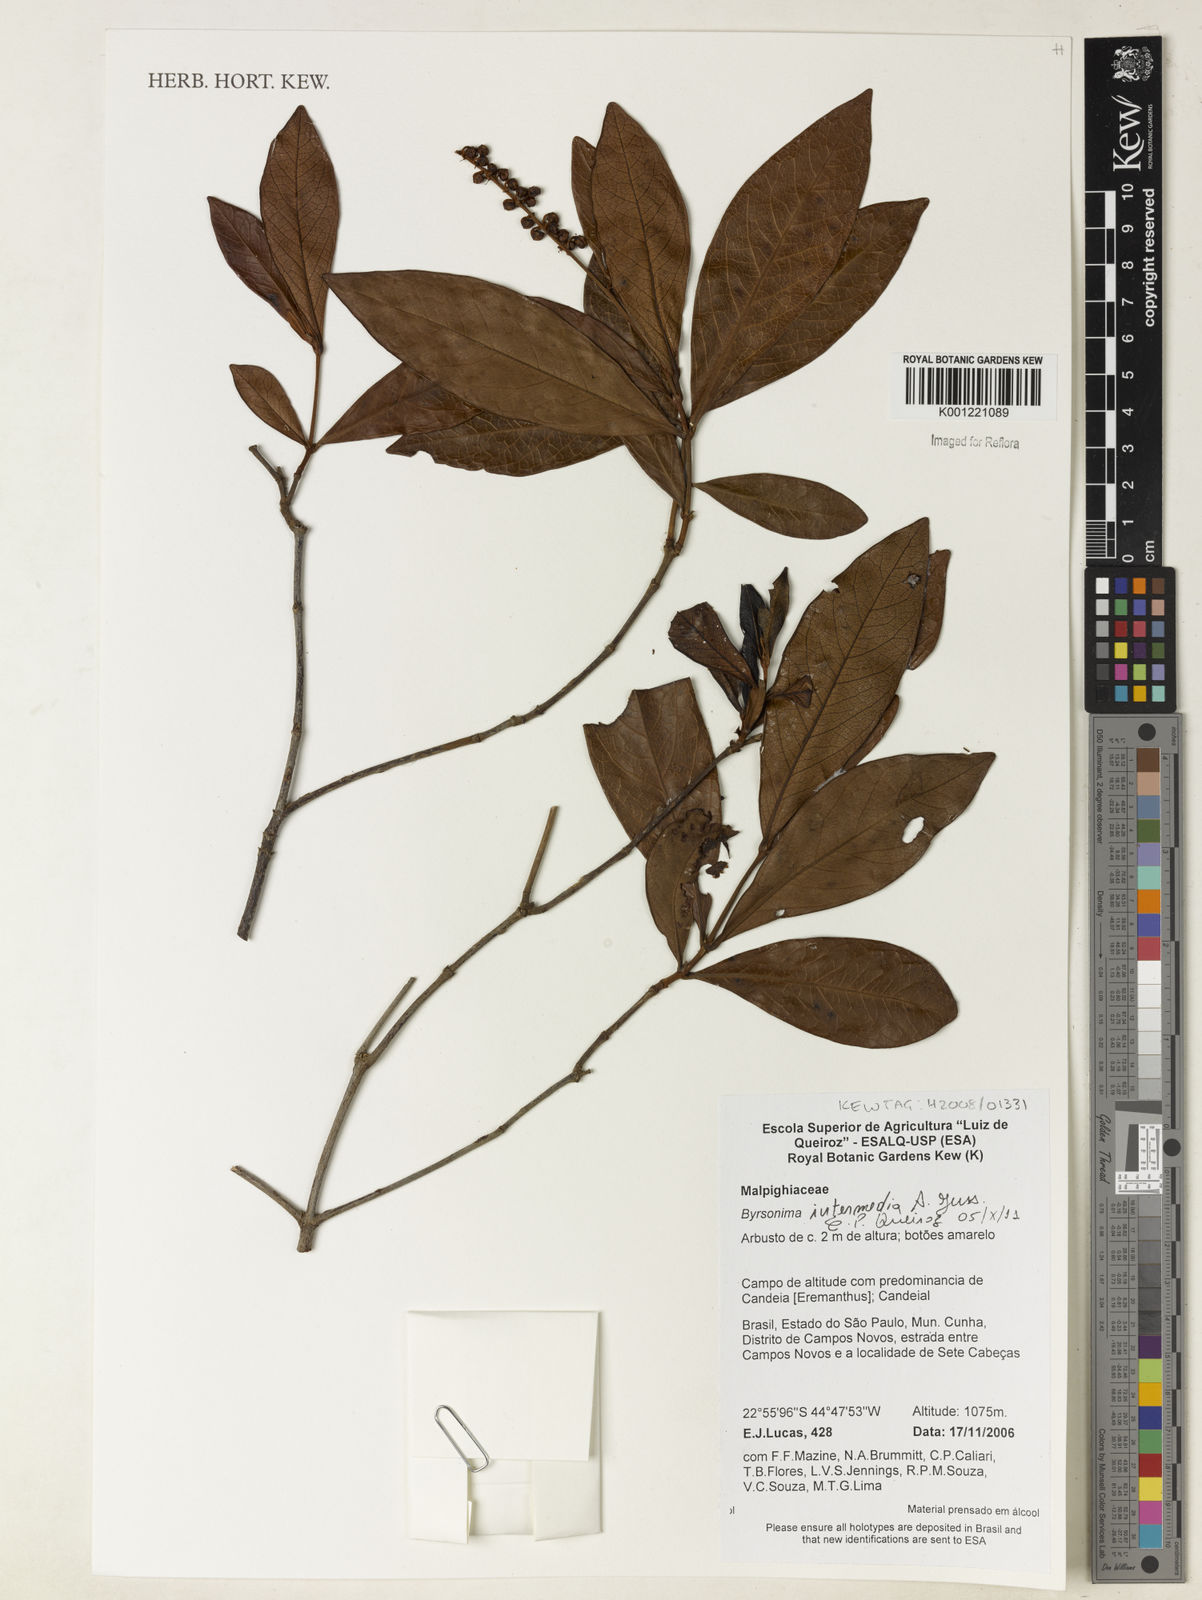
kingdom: Plantae
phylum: Tracheophyta
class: Magnoliopsida
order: Malpighiales
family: Malpighiaceae
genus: Byrsonima
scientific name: Byrsonima intermedia
